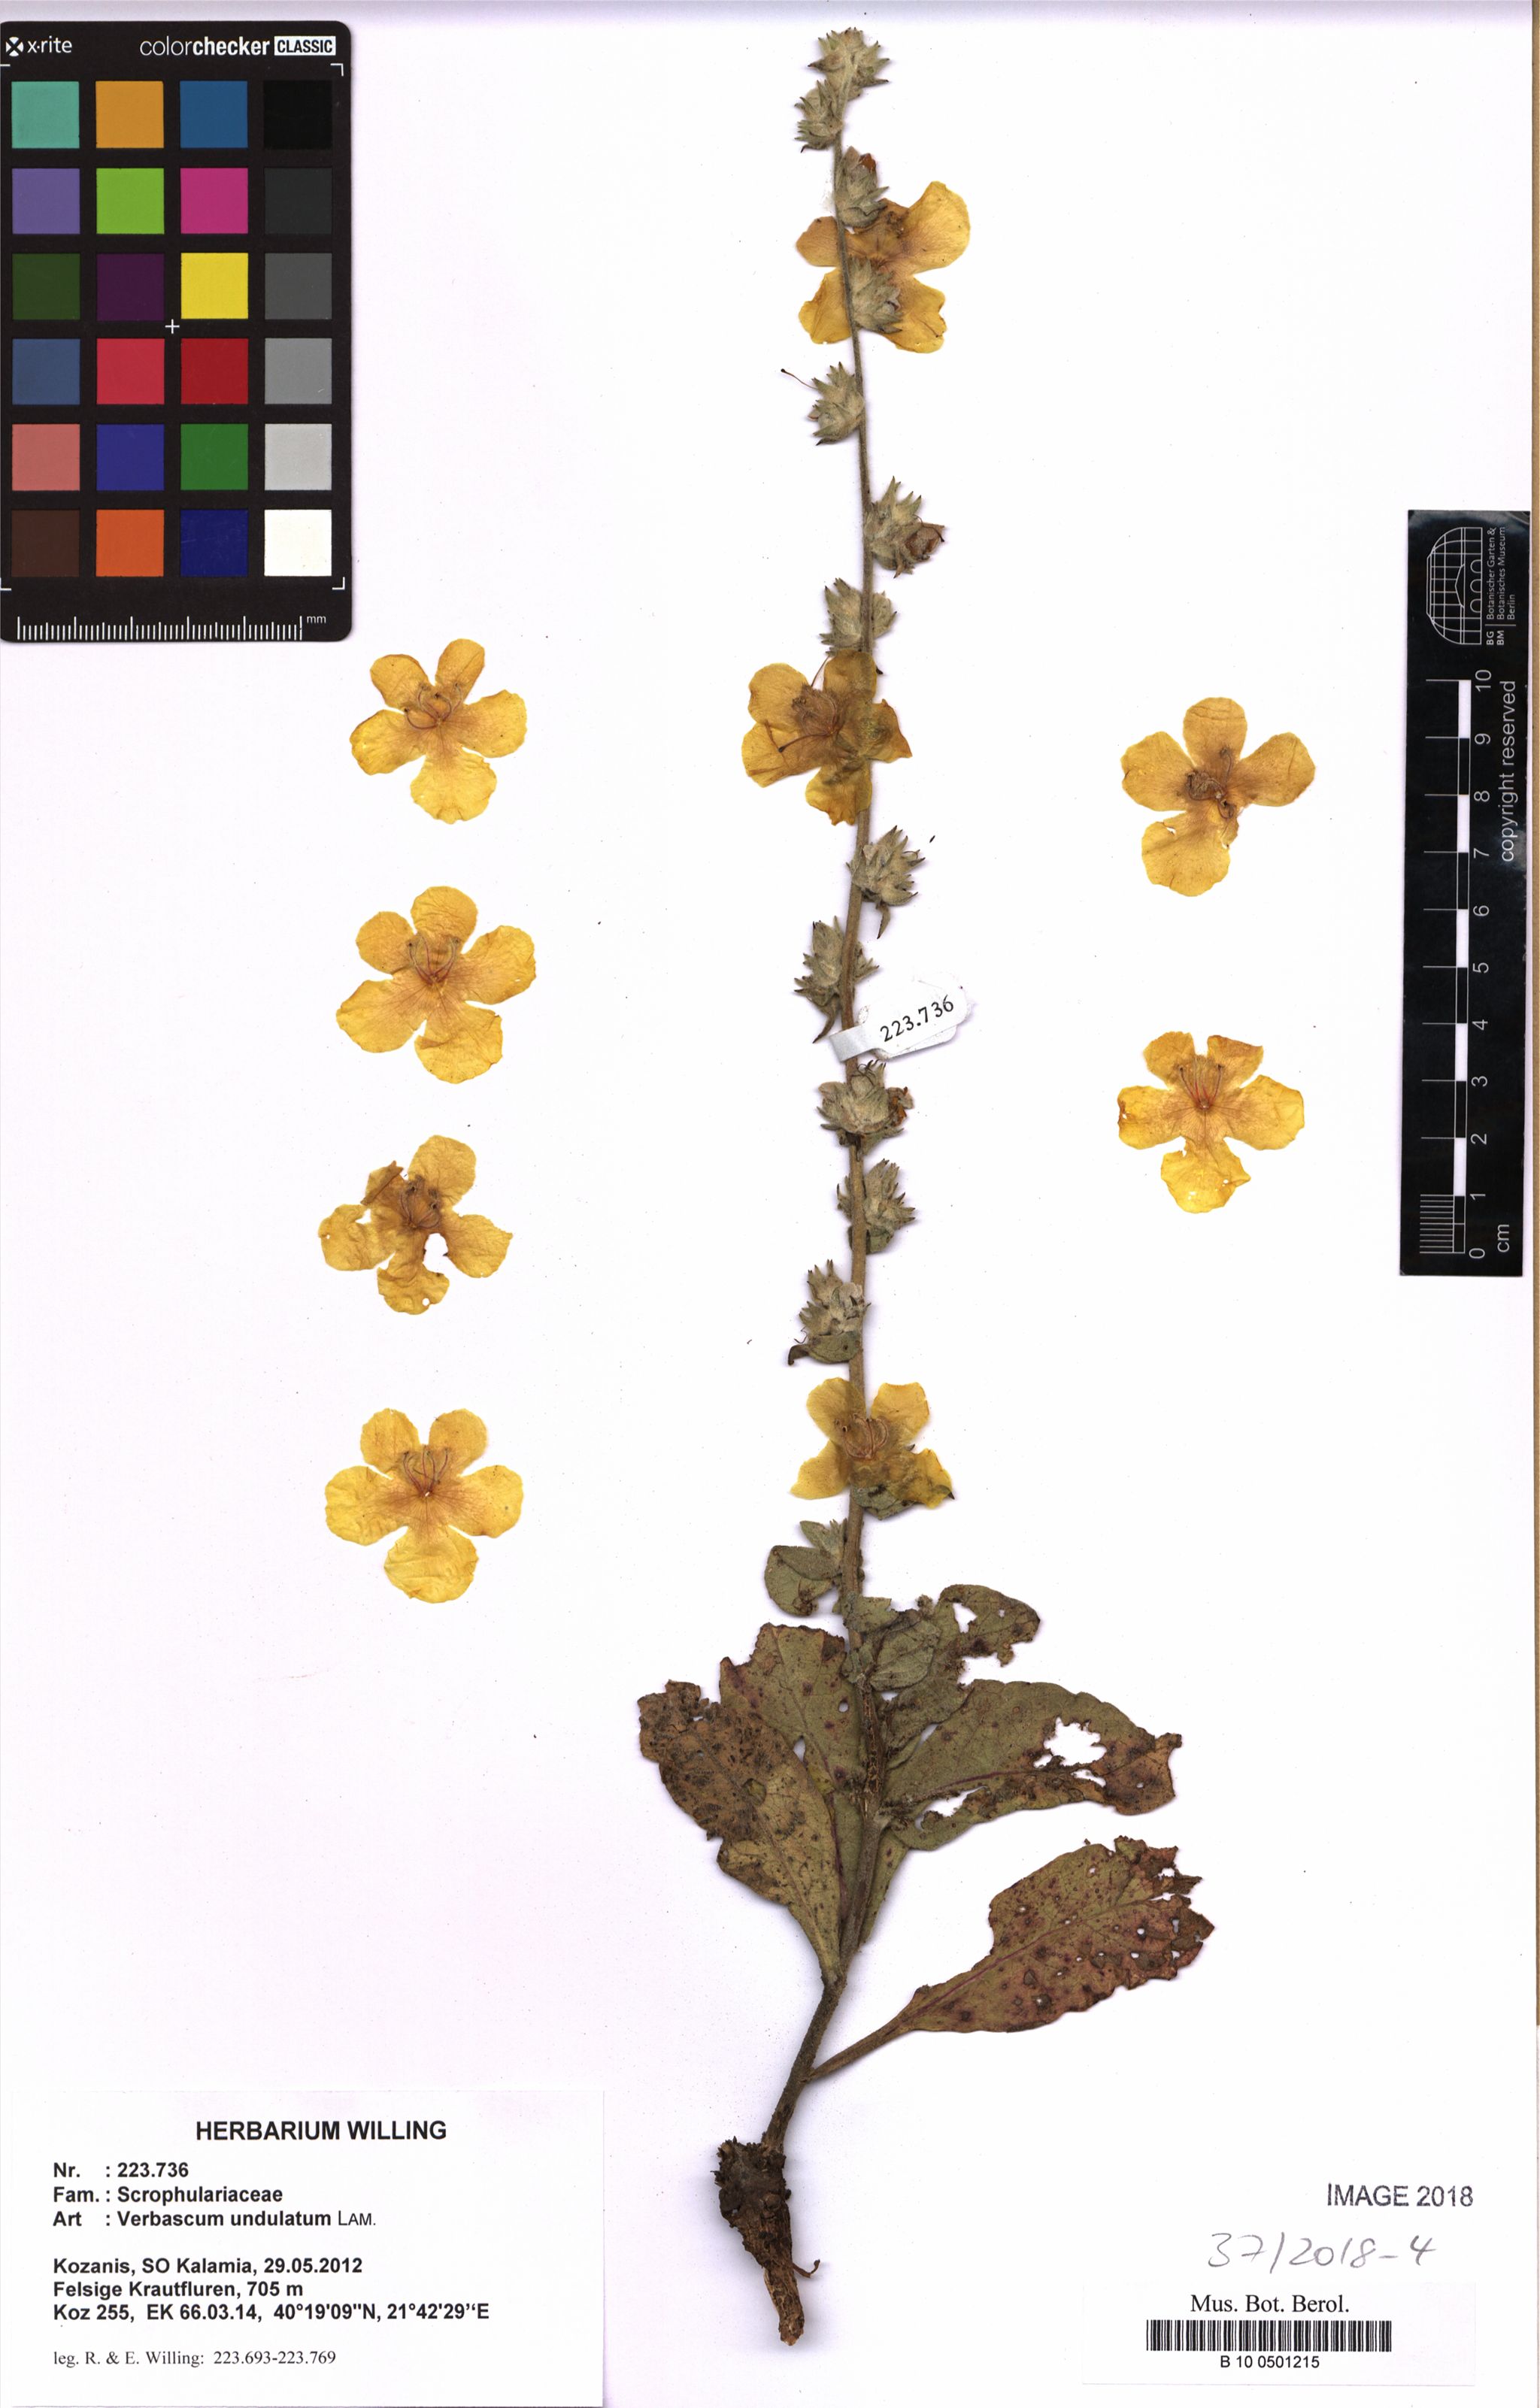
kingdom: Plantae
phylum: Tracheophyta
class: Magnoliopsida
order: Lamiales
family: Scrophulariaceae
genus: Verbascum
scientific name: Verbascum undulatum
